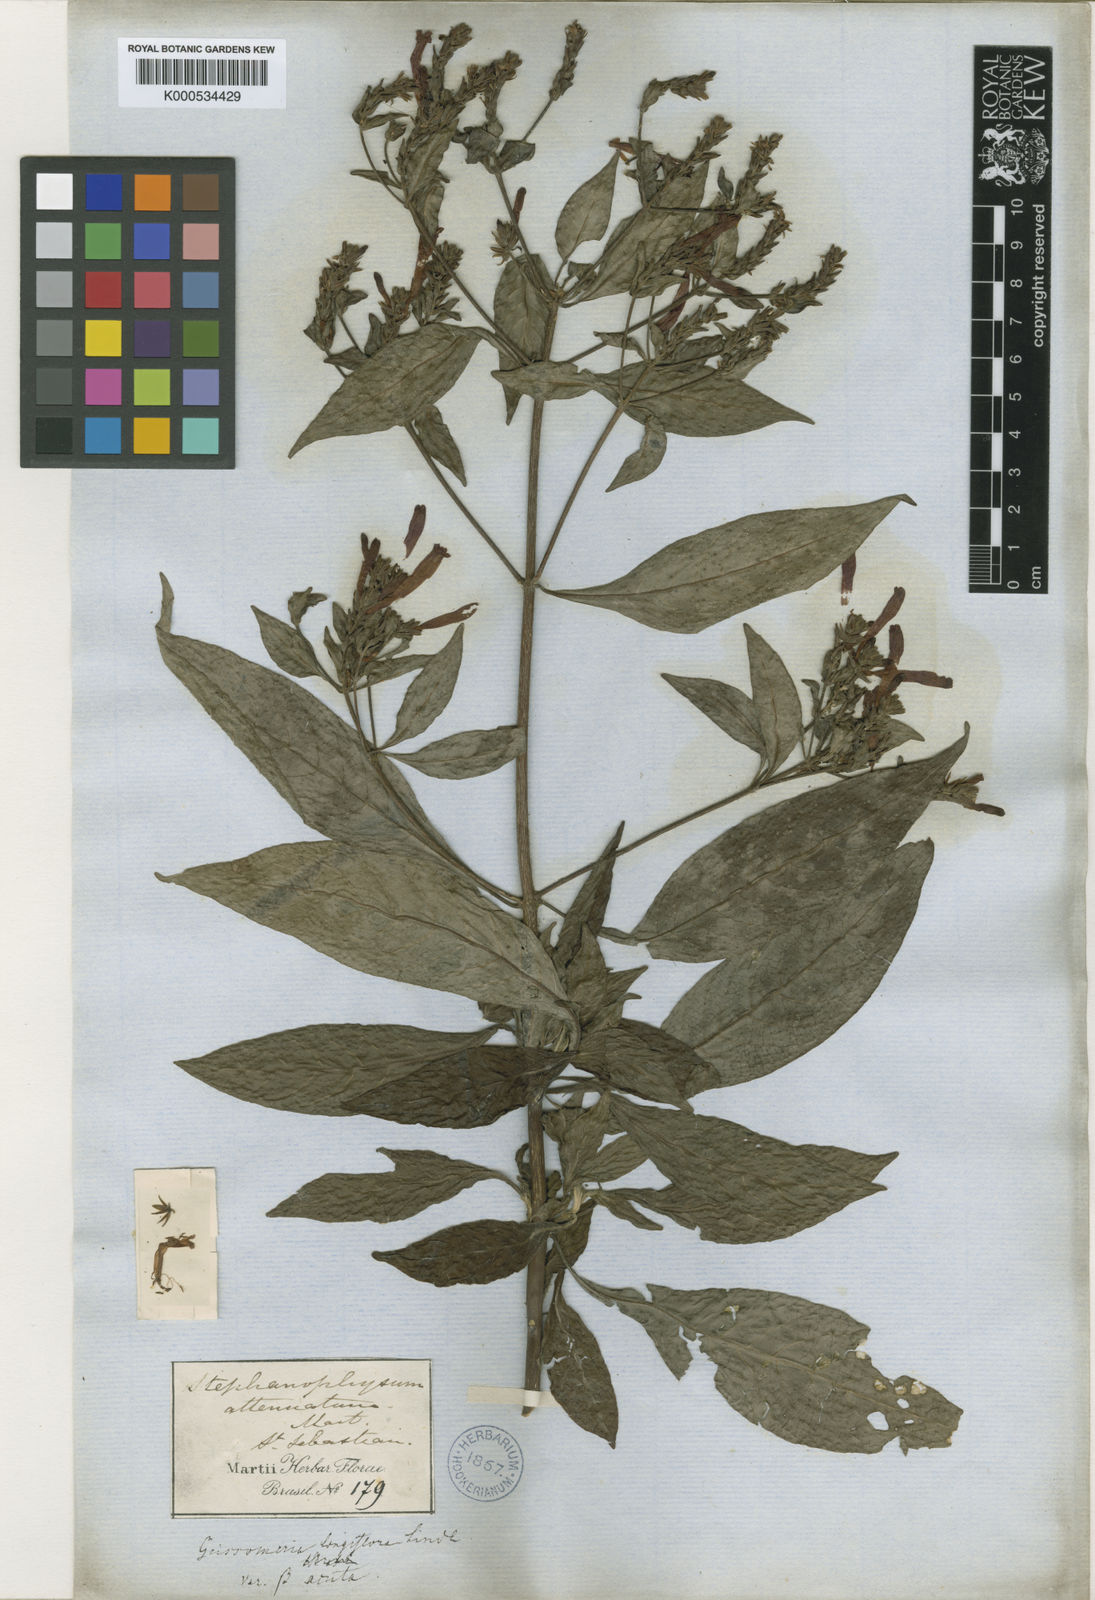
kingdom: Plantae
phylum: Tracheophyta
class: Magnoliopsida
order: Lamiales
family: Acanthaceae
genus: Aphelandra
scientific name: Aphelandra longiflora
